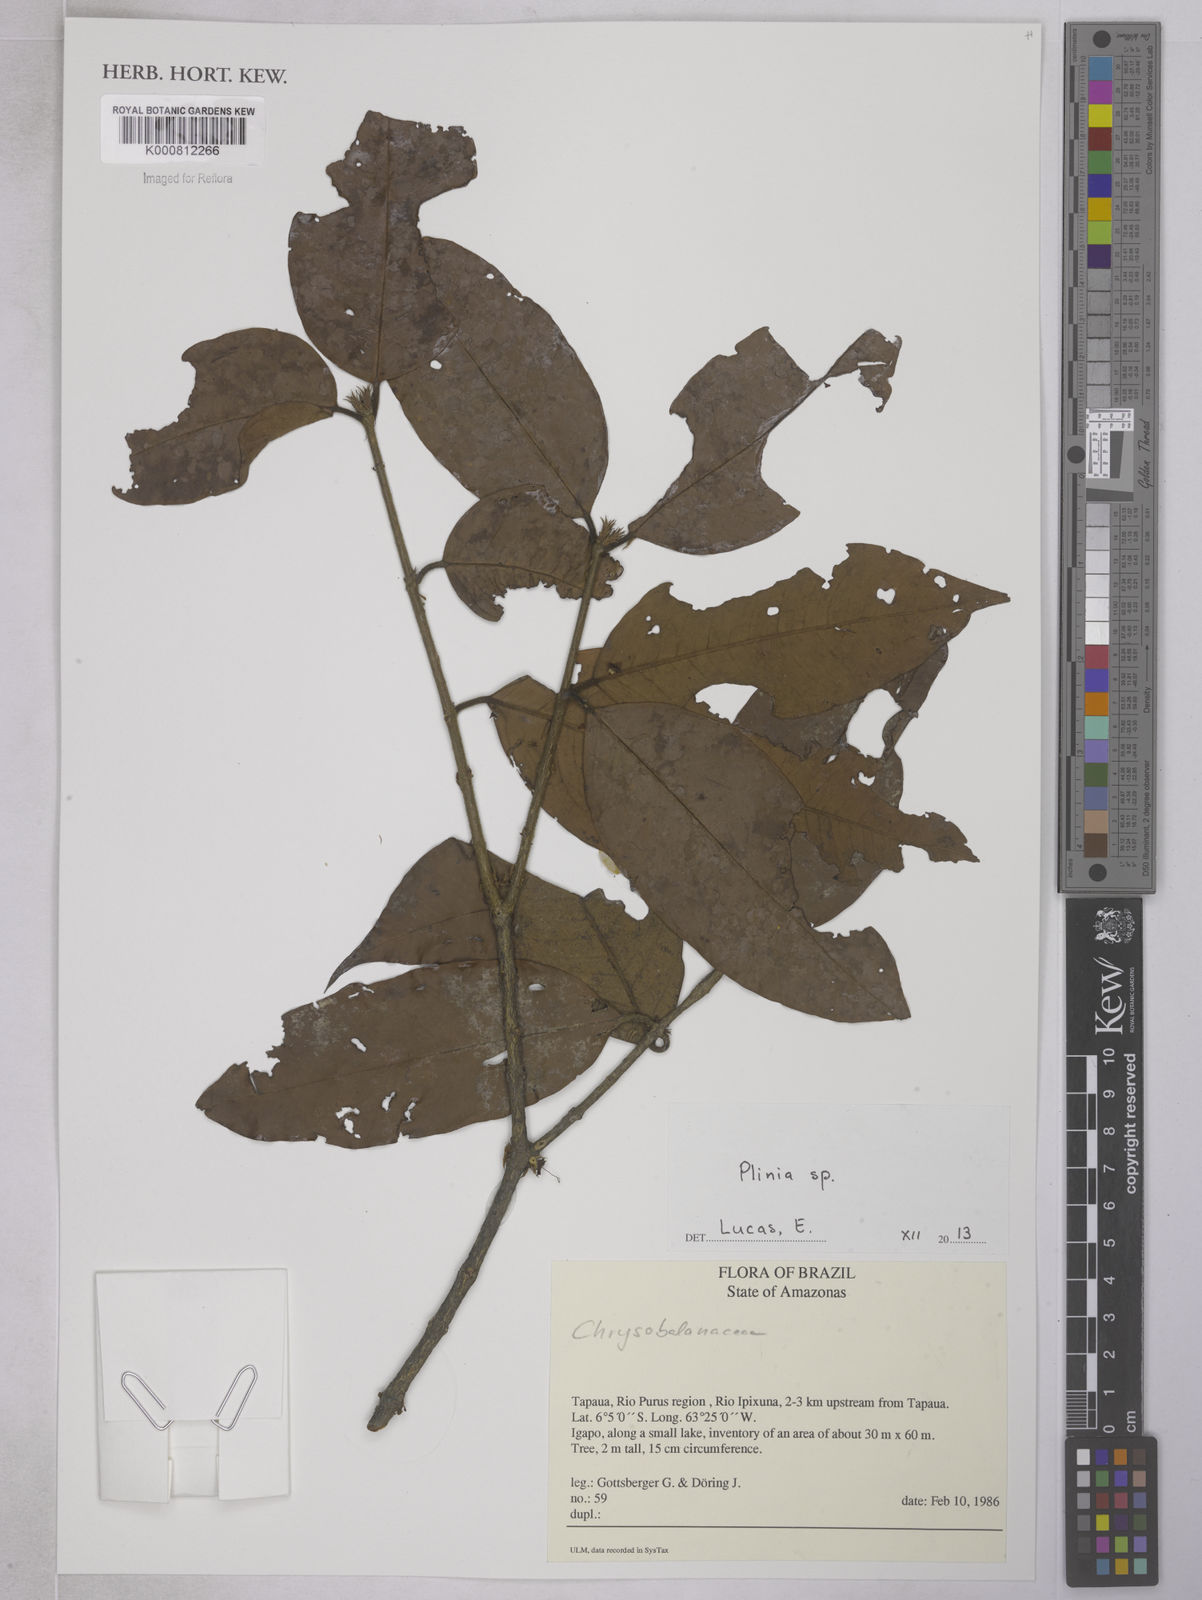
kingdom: Plantae
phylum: Tracheophyta
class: Magnoliopsida
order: Myrtales
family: Myrtaceae
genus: Plinia
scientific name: Plinia
